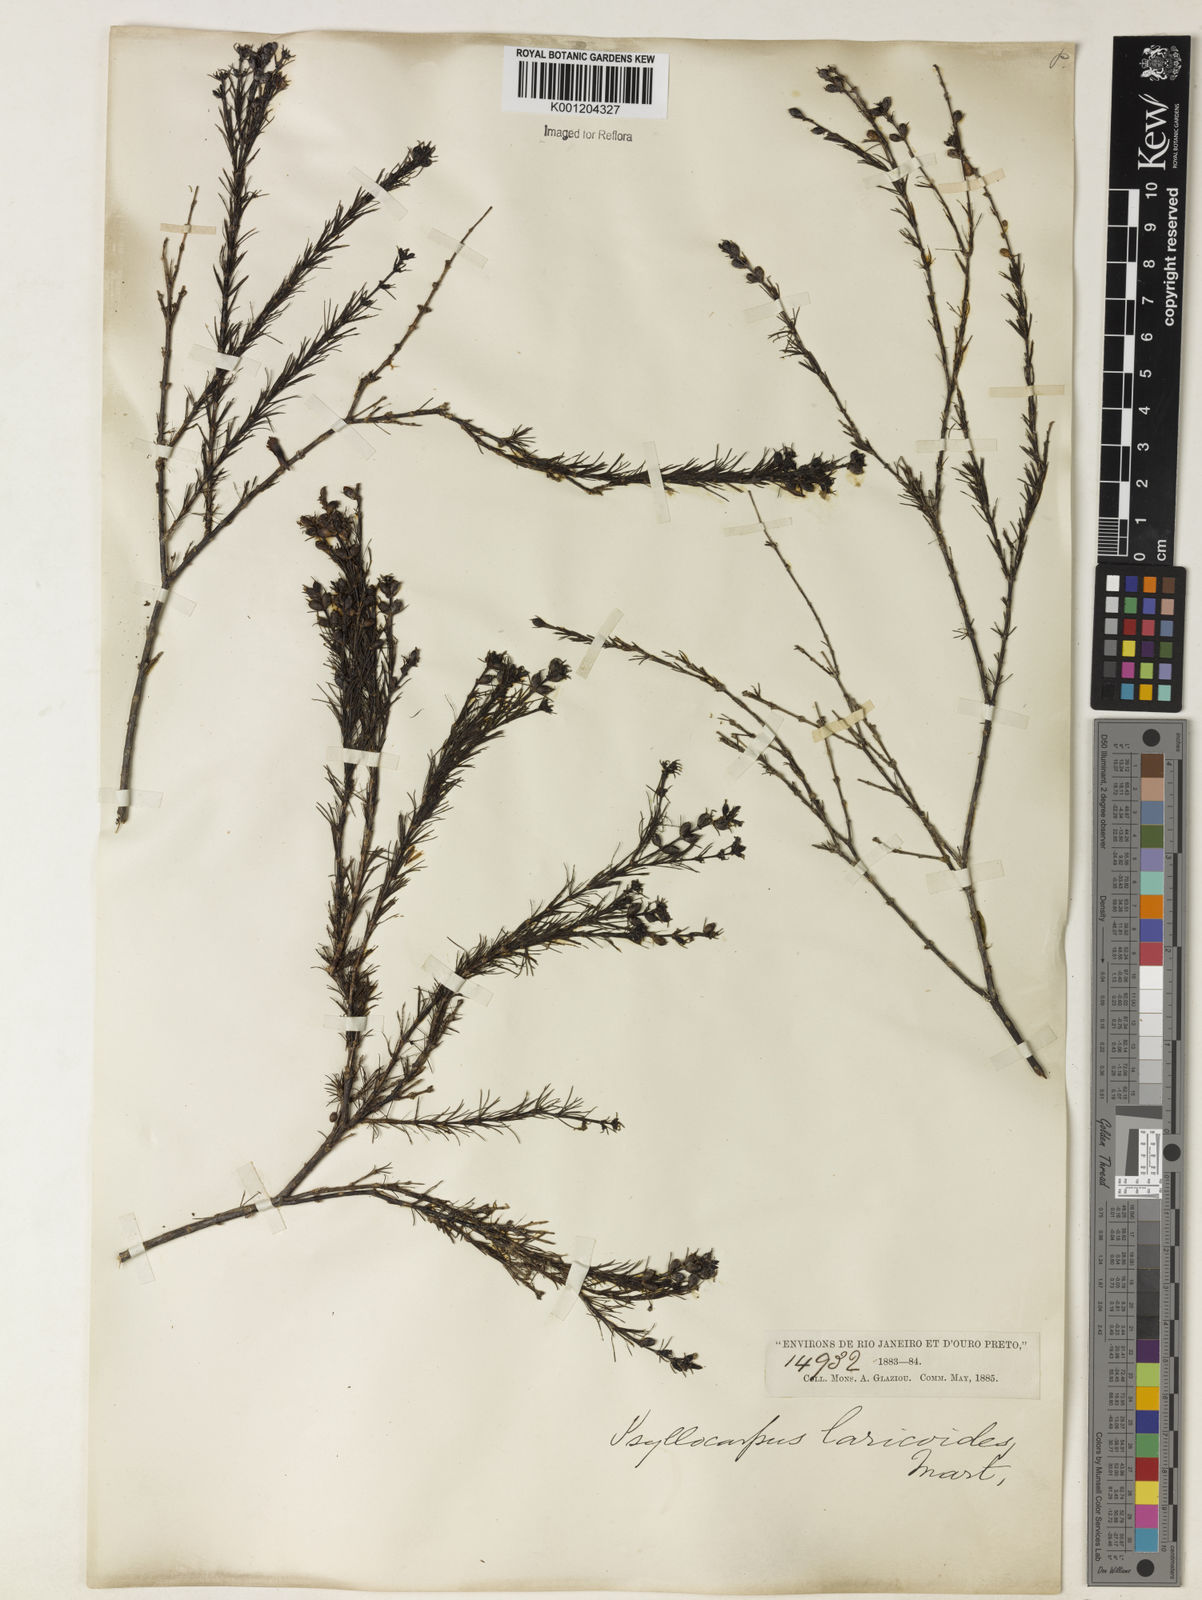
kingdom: Plantae
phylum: Tracheophyta
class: Magnoliopsida
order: Gentianales
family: Rubiaceae
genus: Psyllocarpus
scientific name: Psyllocarpus laricoides
